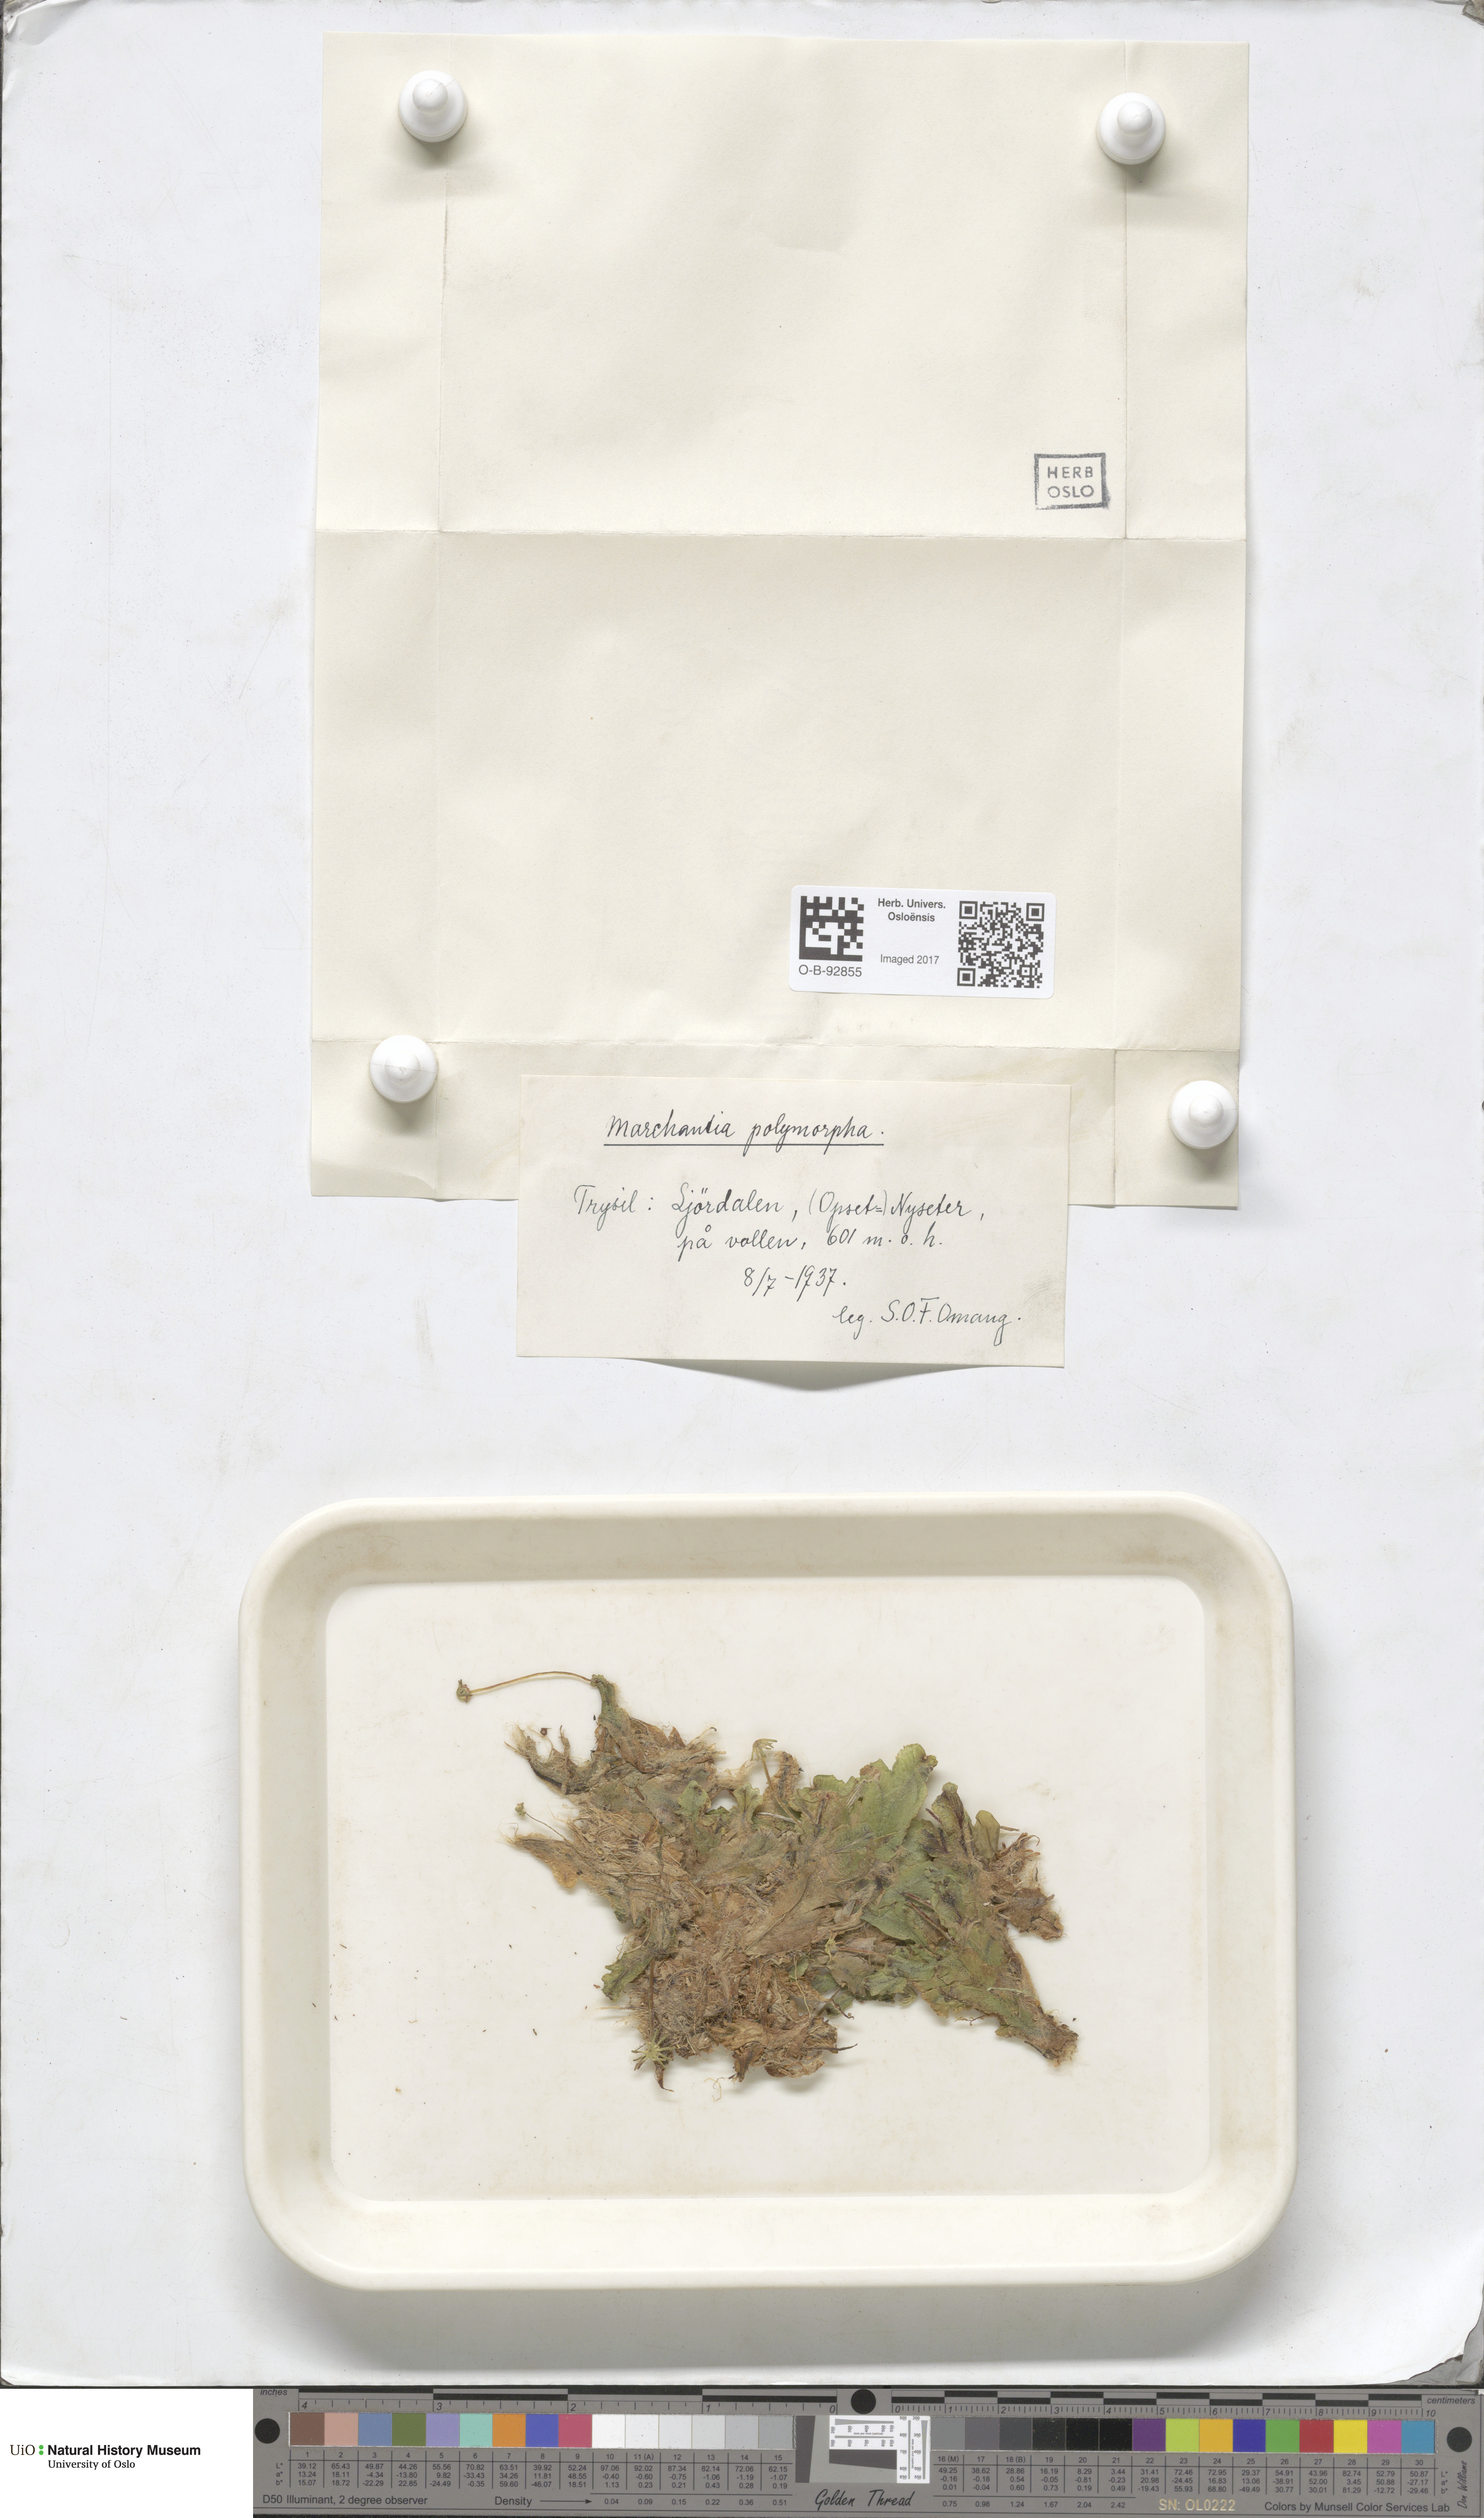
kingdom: Plantae
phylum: Marchantiophyta
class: Marchantiopsida
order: Marchantiales
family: Marchantiaceae
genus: Marchantia
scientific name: Marchantia polymorpha
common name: Common liverwort
